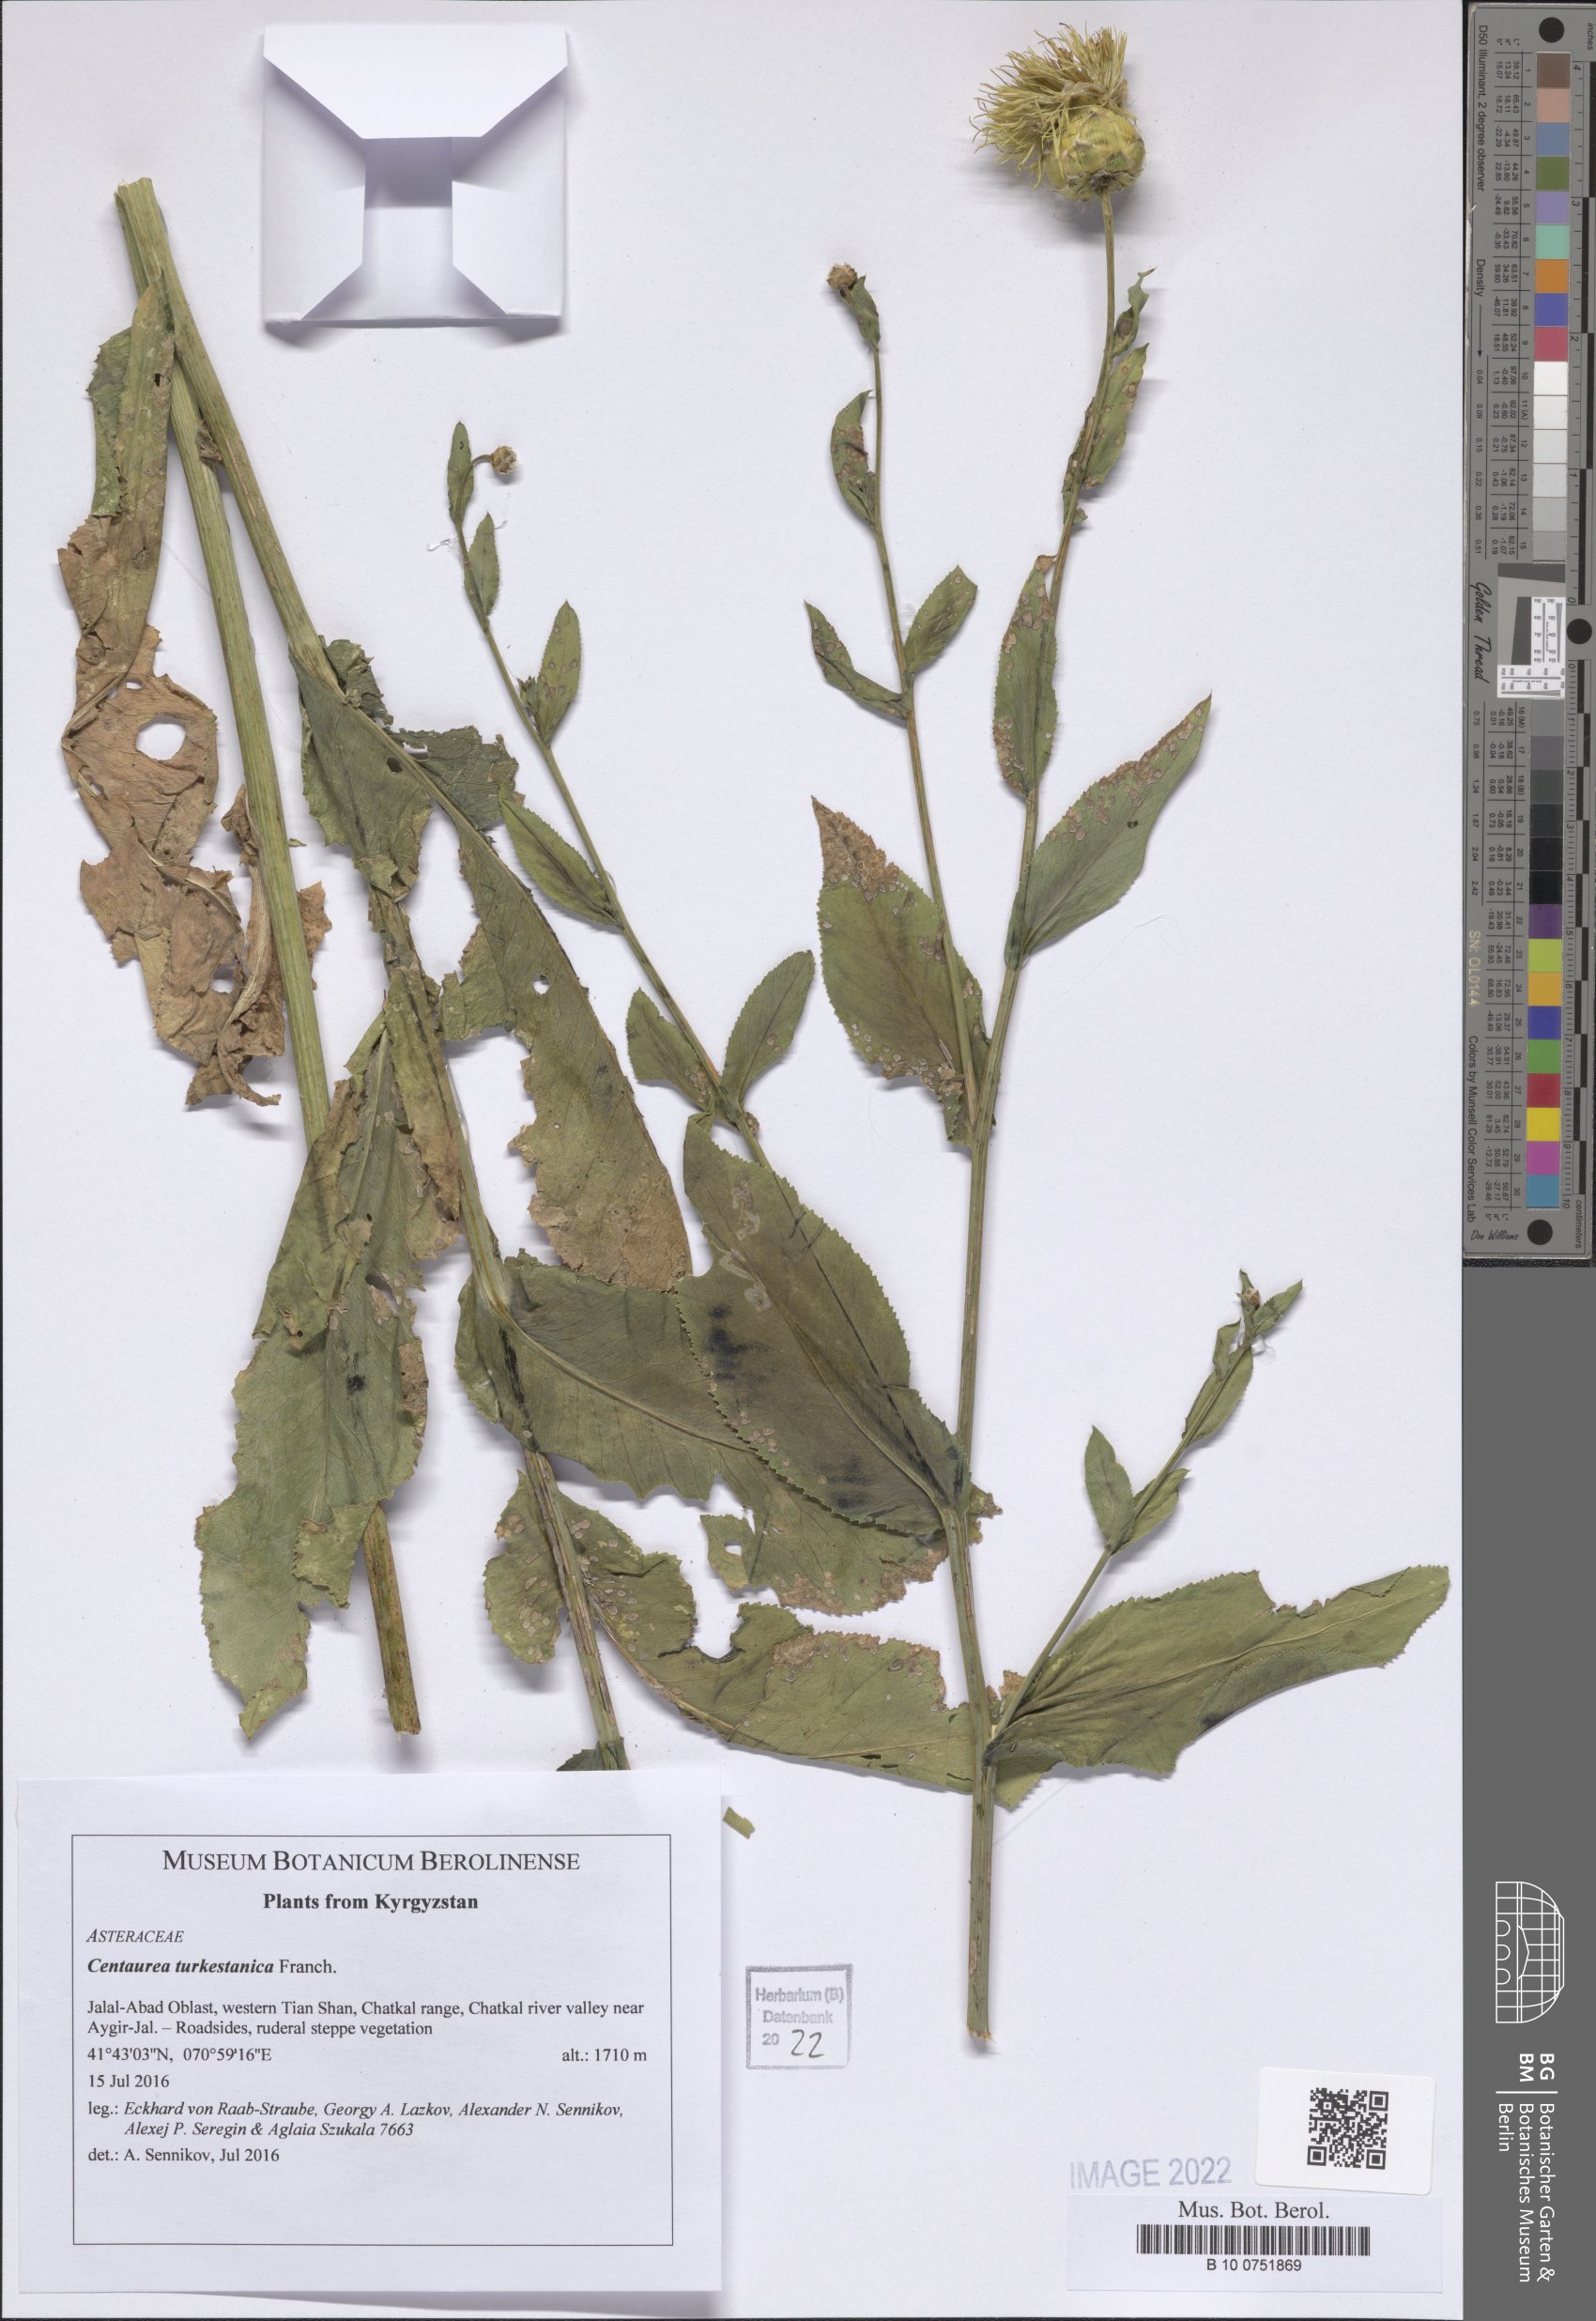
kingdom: Plantae
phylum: Tracheophyta
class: Magnoliopsida
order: Asterales
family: Asteraceae
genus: Centaurea
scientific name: Centaurea turkestanica
